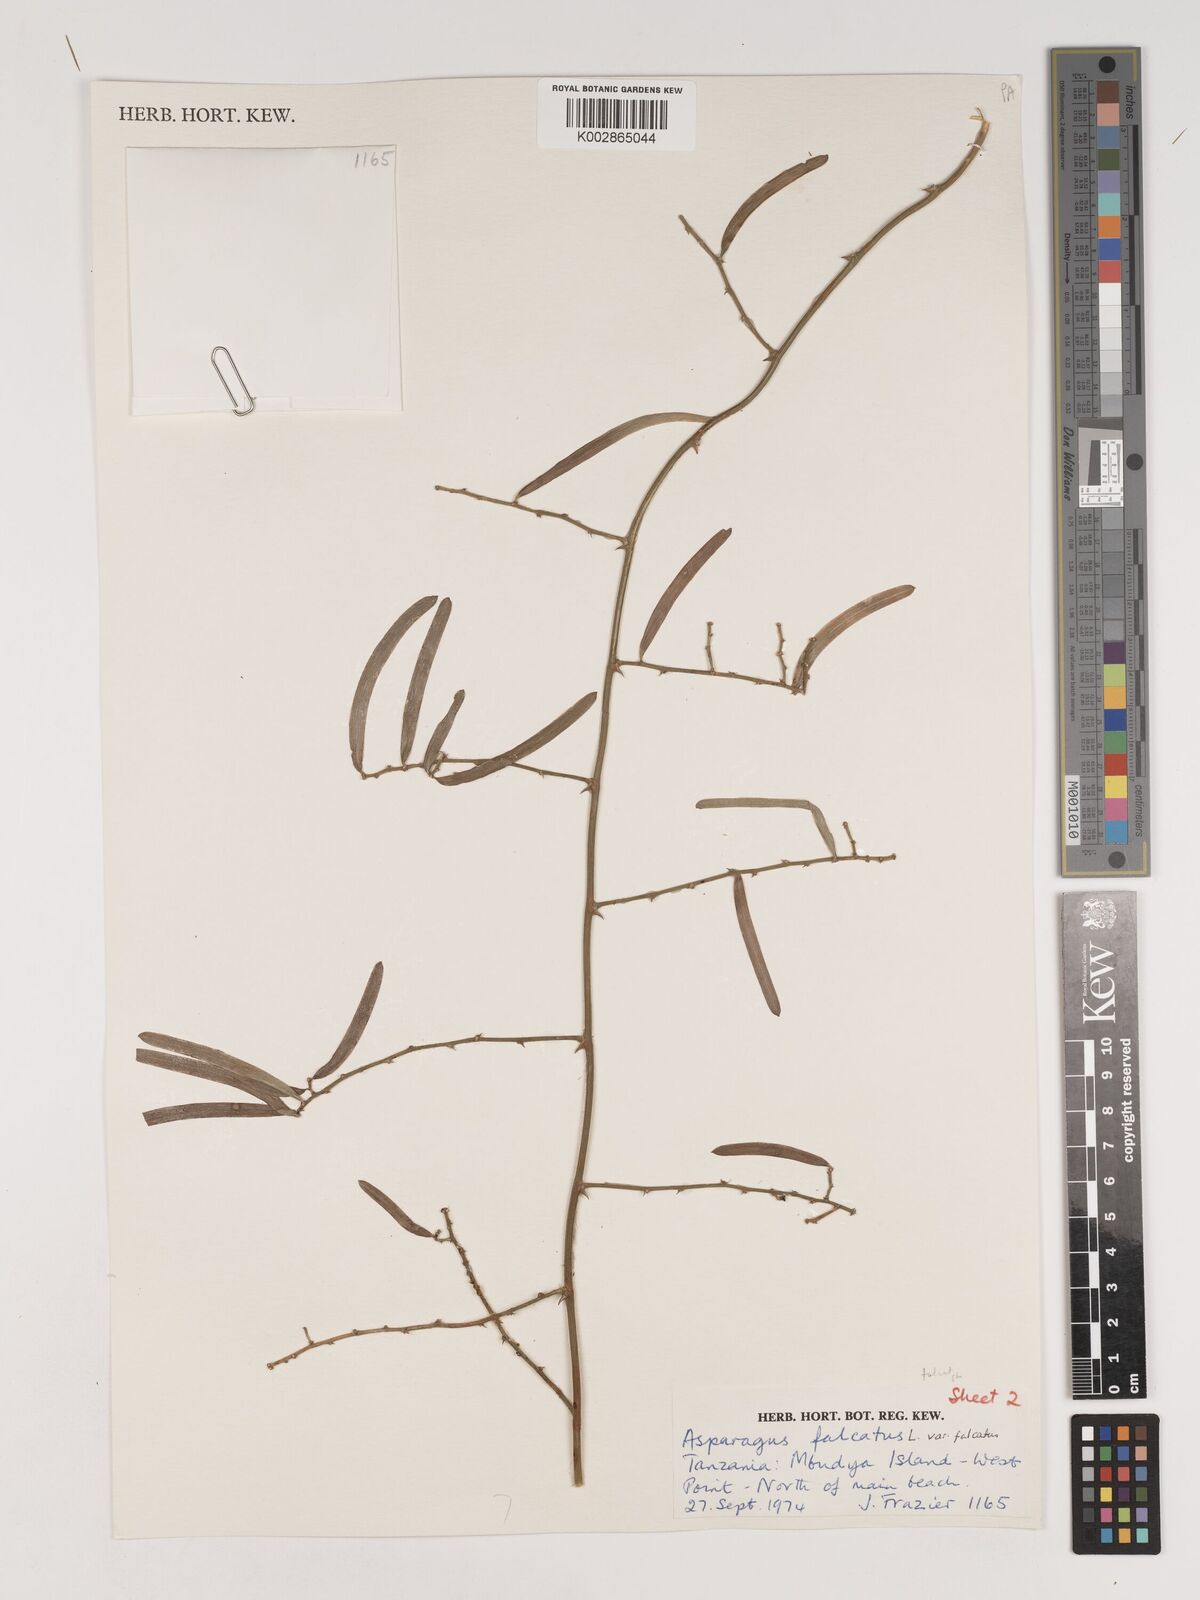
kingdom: Plantae
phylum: Tracheophyta
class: Liliopsida
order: Asparagales
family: Asparagaceae
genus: Asparagus
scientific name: Asparagus falcatus
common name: Asparagus
